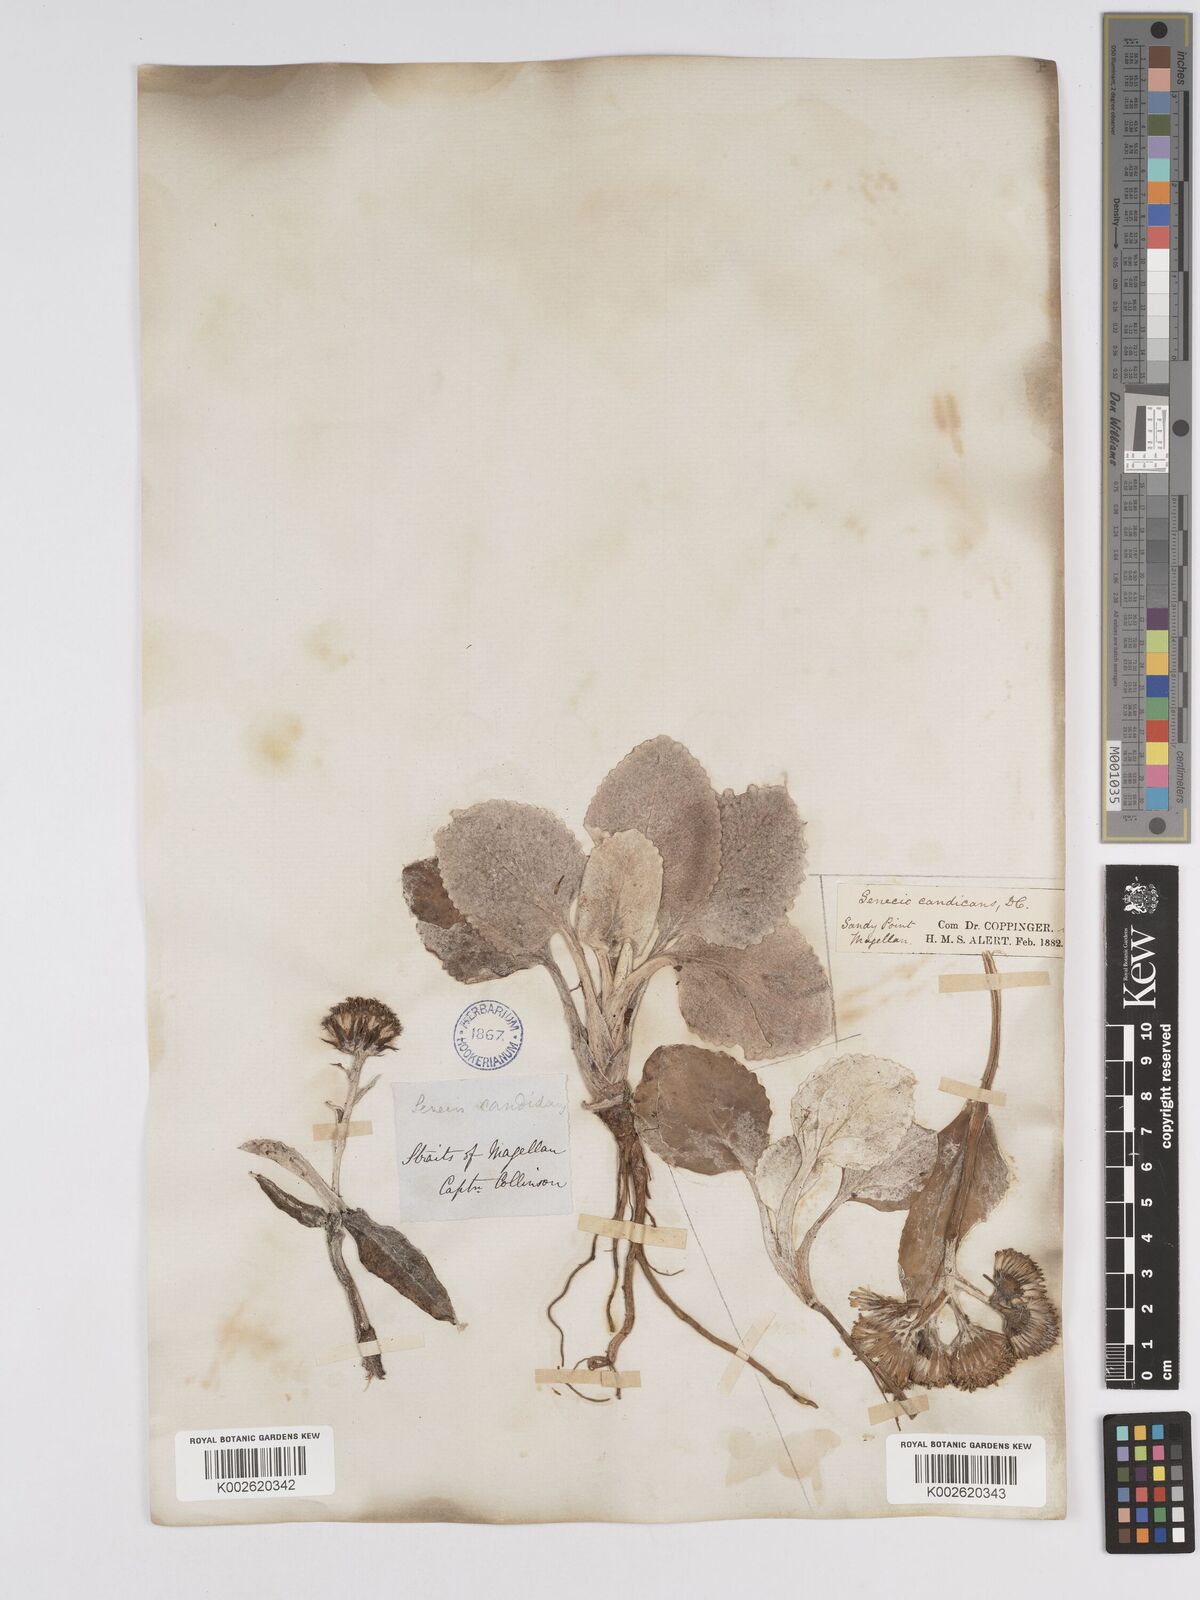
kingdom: Plantae
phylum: Tracheophyta
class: Magnoliopsida
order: Asterales
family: Asteraceae
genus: Senecio
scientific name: Senecio candidans
